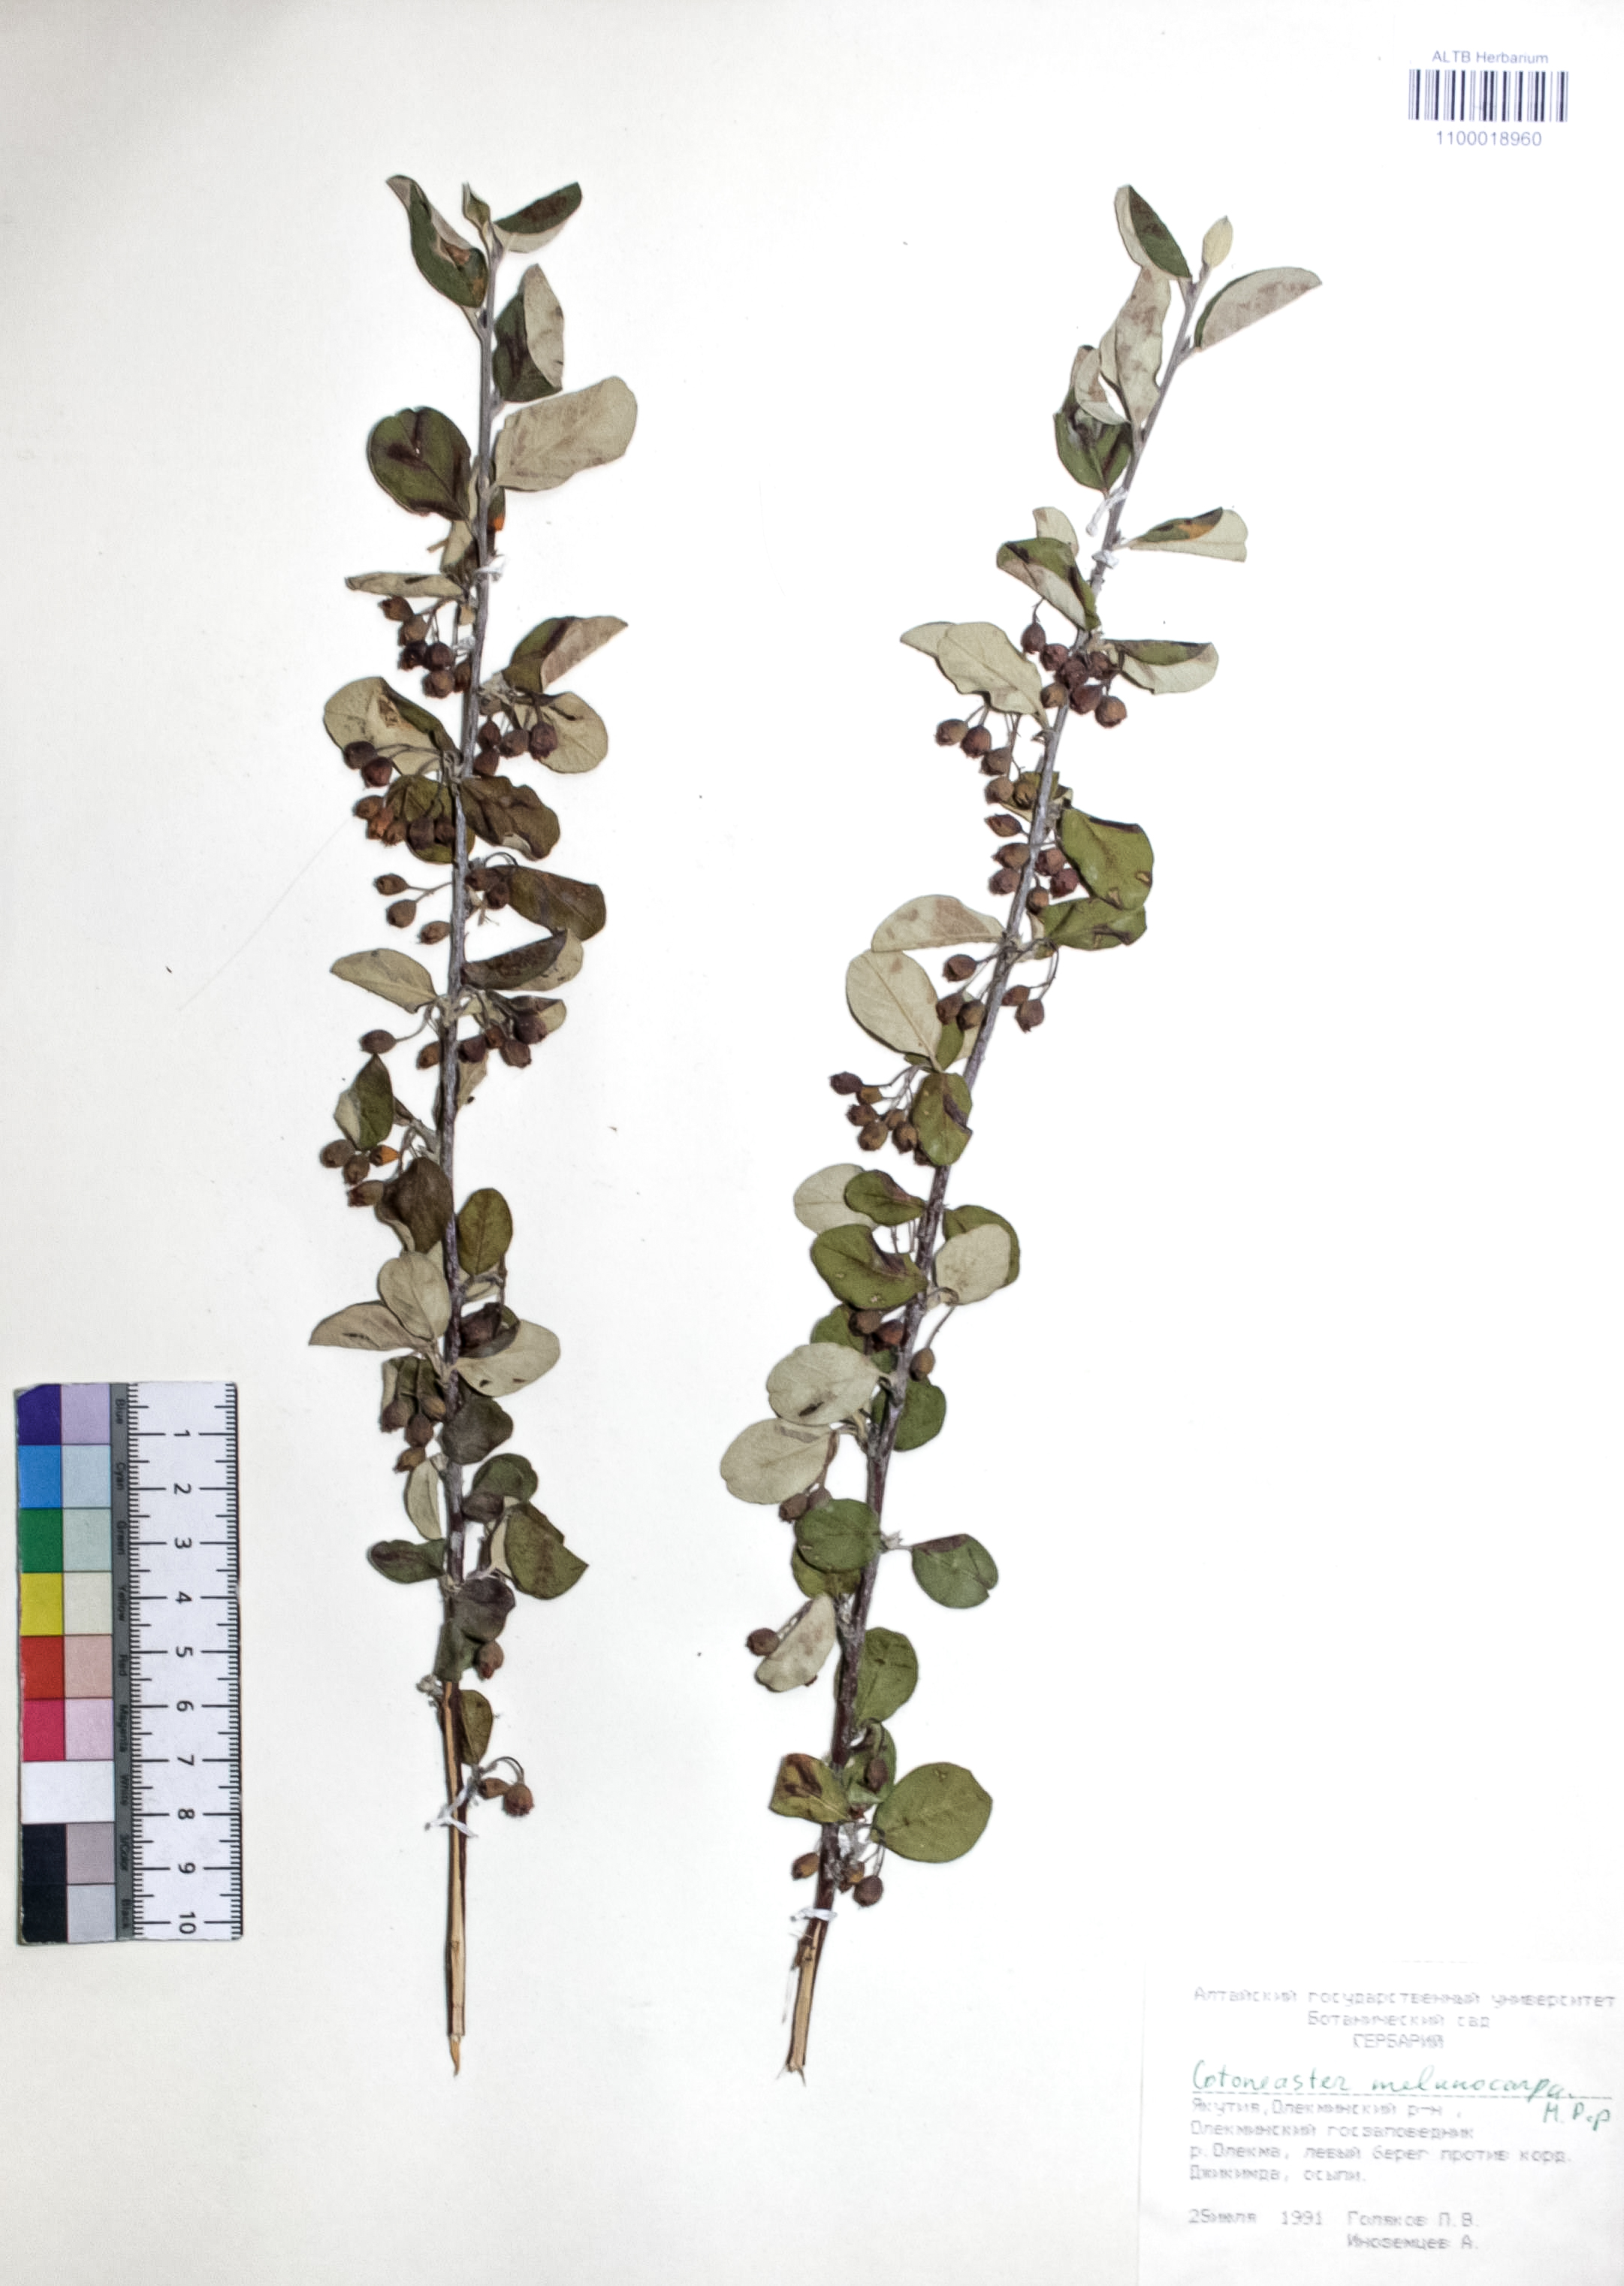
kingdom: Plantae
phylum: Tracheophyta
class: Magnoliopsida
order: Rosales
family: Rosaceae
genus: Cotoneaster
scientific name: Cotoneaster niger
